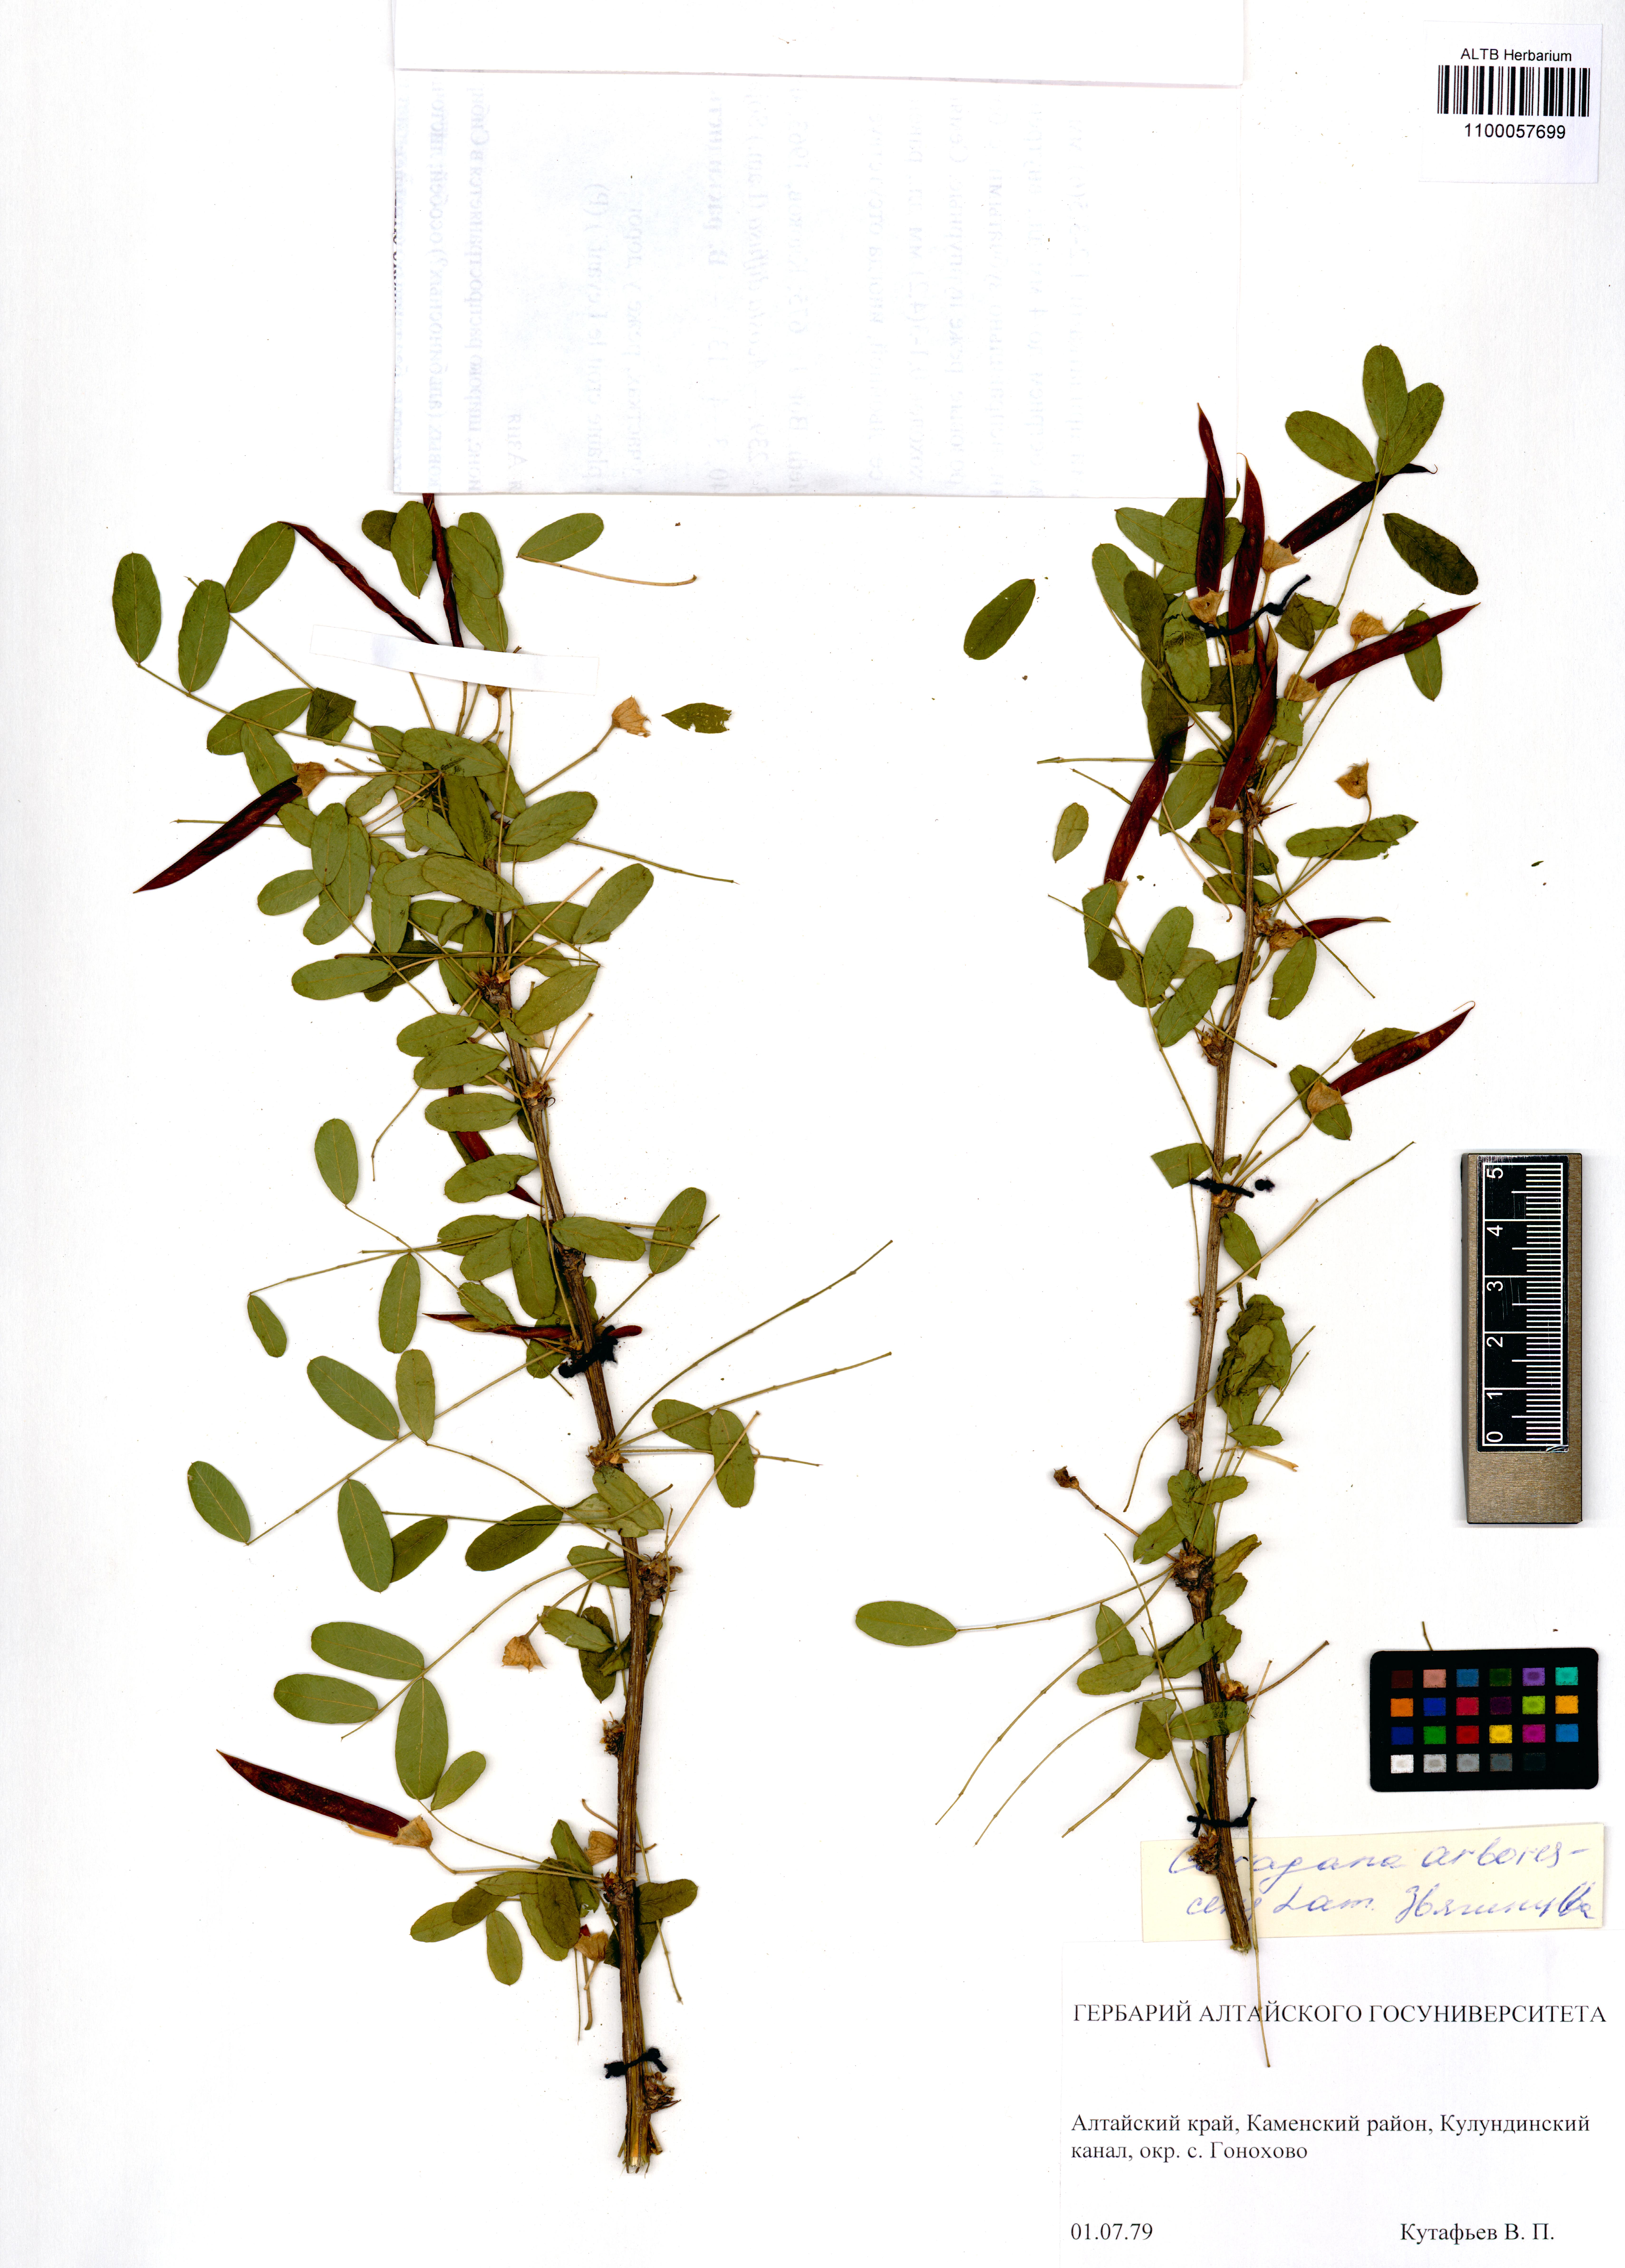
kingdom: Plantae
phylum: Tracheophyta
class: Magnoliopsida
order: Fabales
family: Fabaceae
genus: Caragana
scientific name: Caragana arborescens
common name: Siberian peashrub
